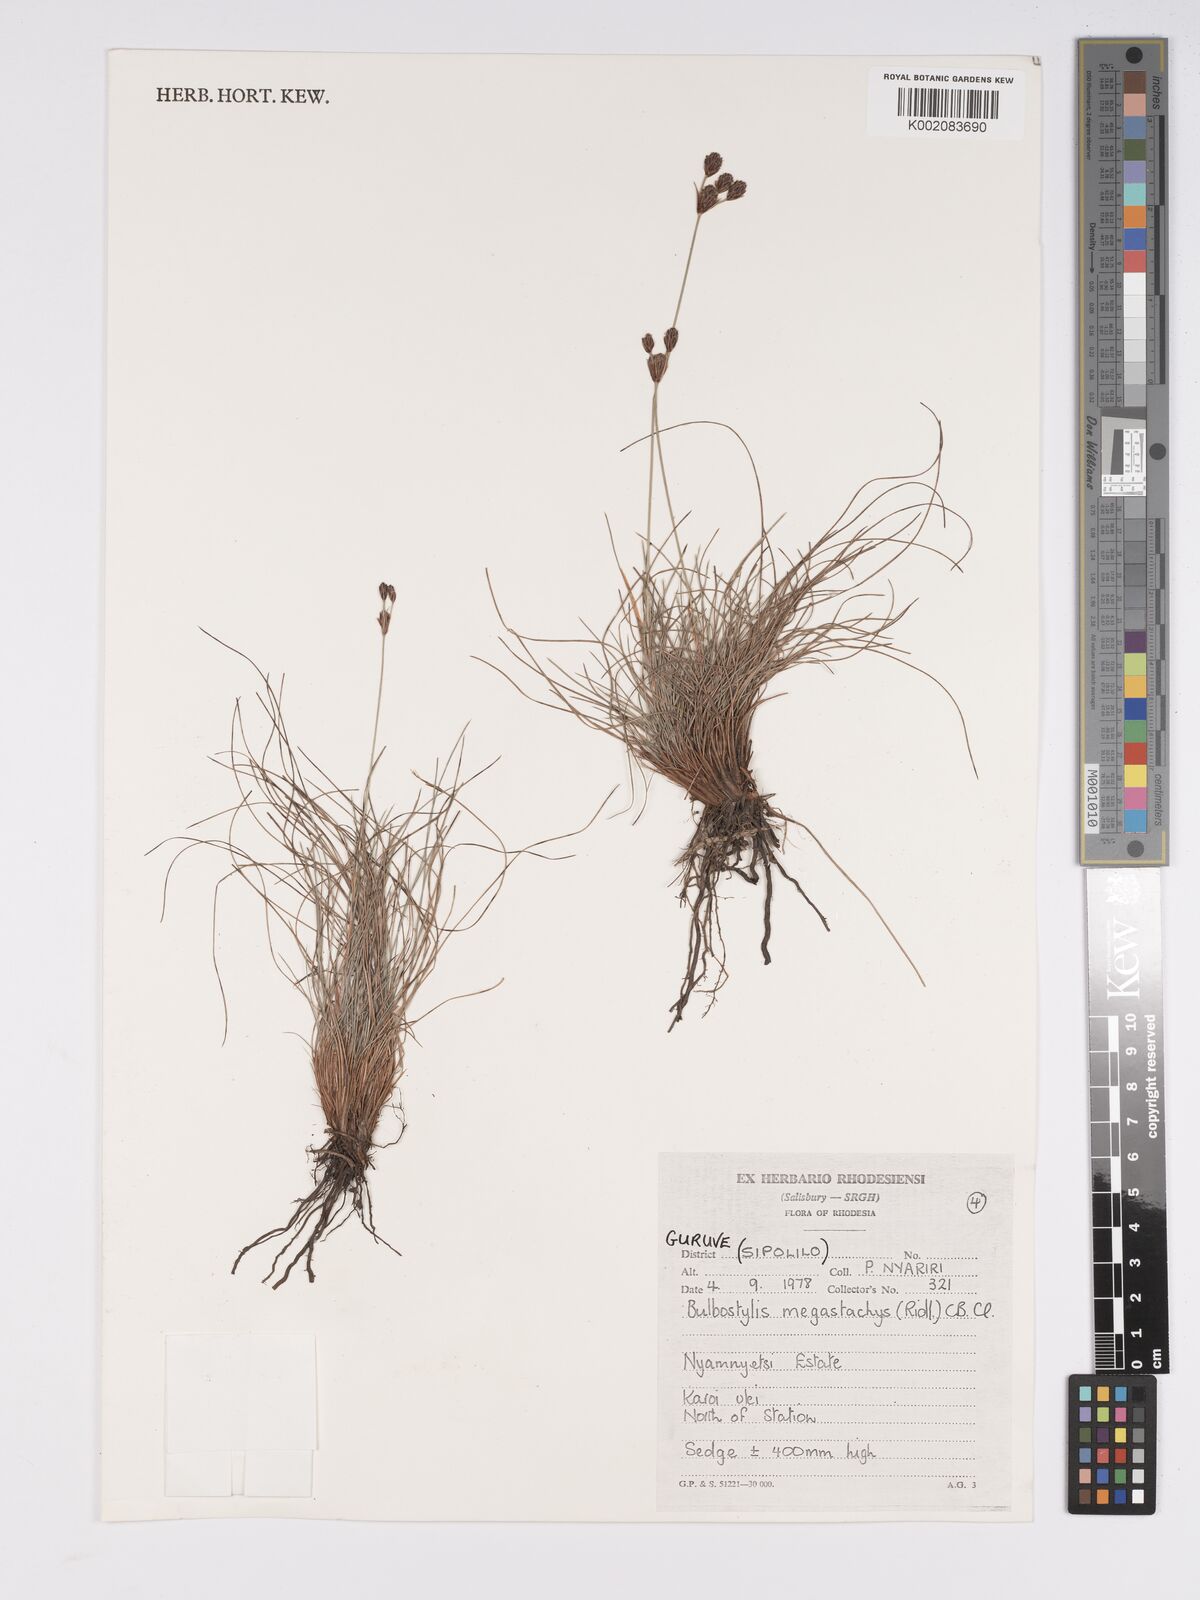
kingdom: Plantae
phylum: Tracheophyta
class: Liliopsida
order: Poales
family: Cyperaceae
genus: Bulbostylis
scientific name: Bulbostylis schoenoides
